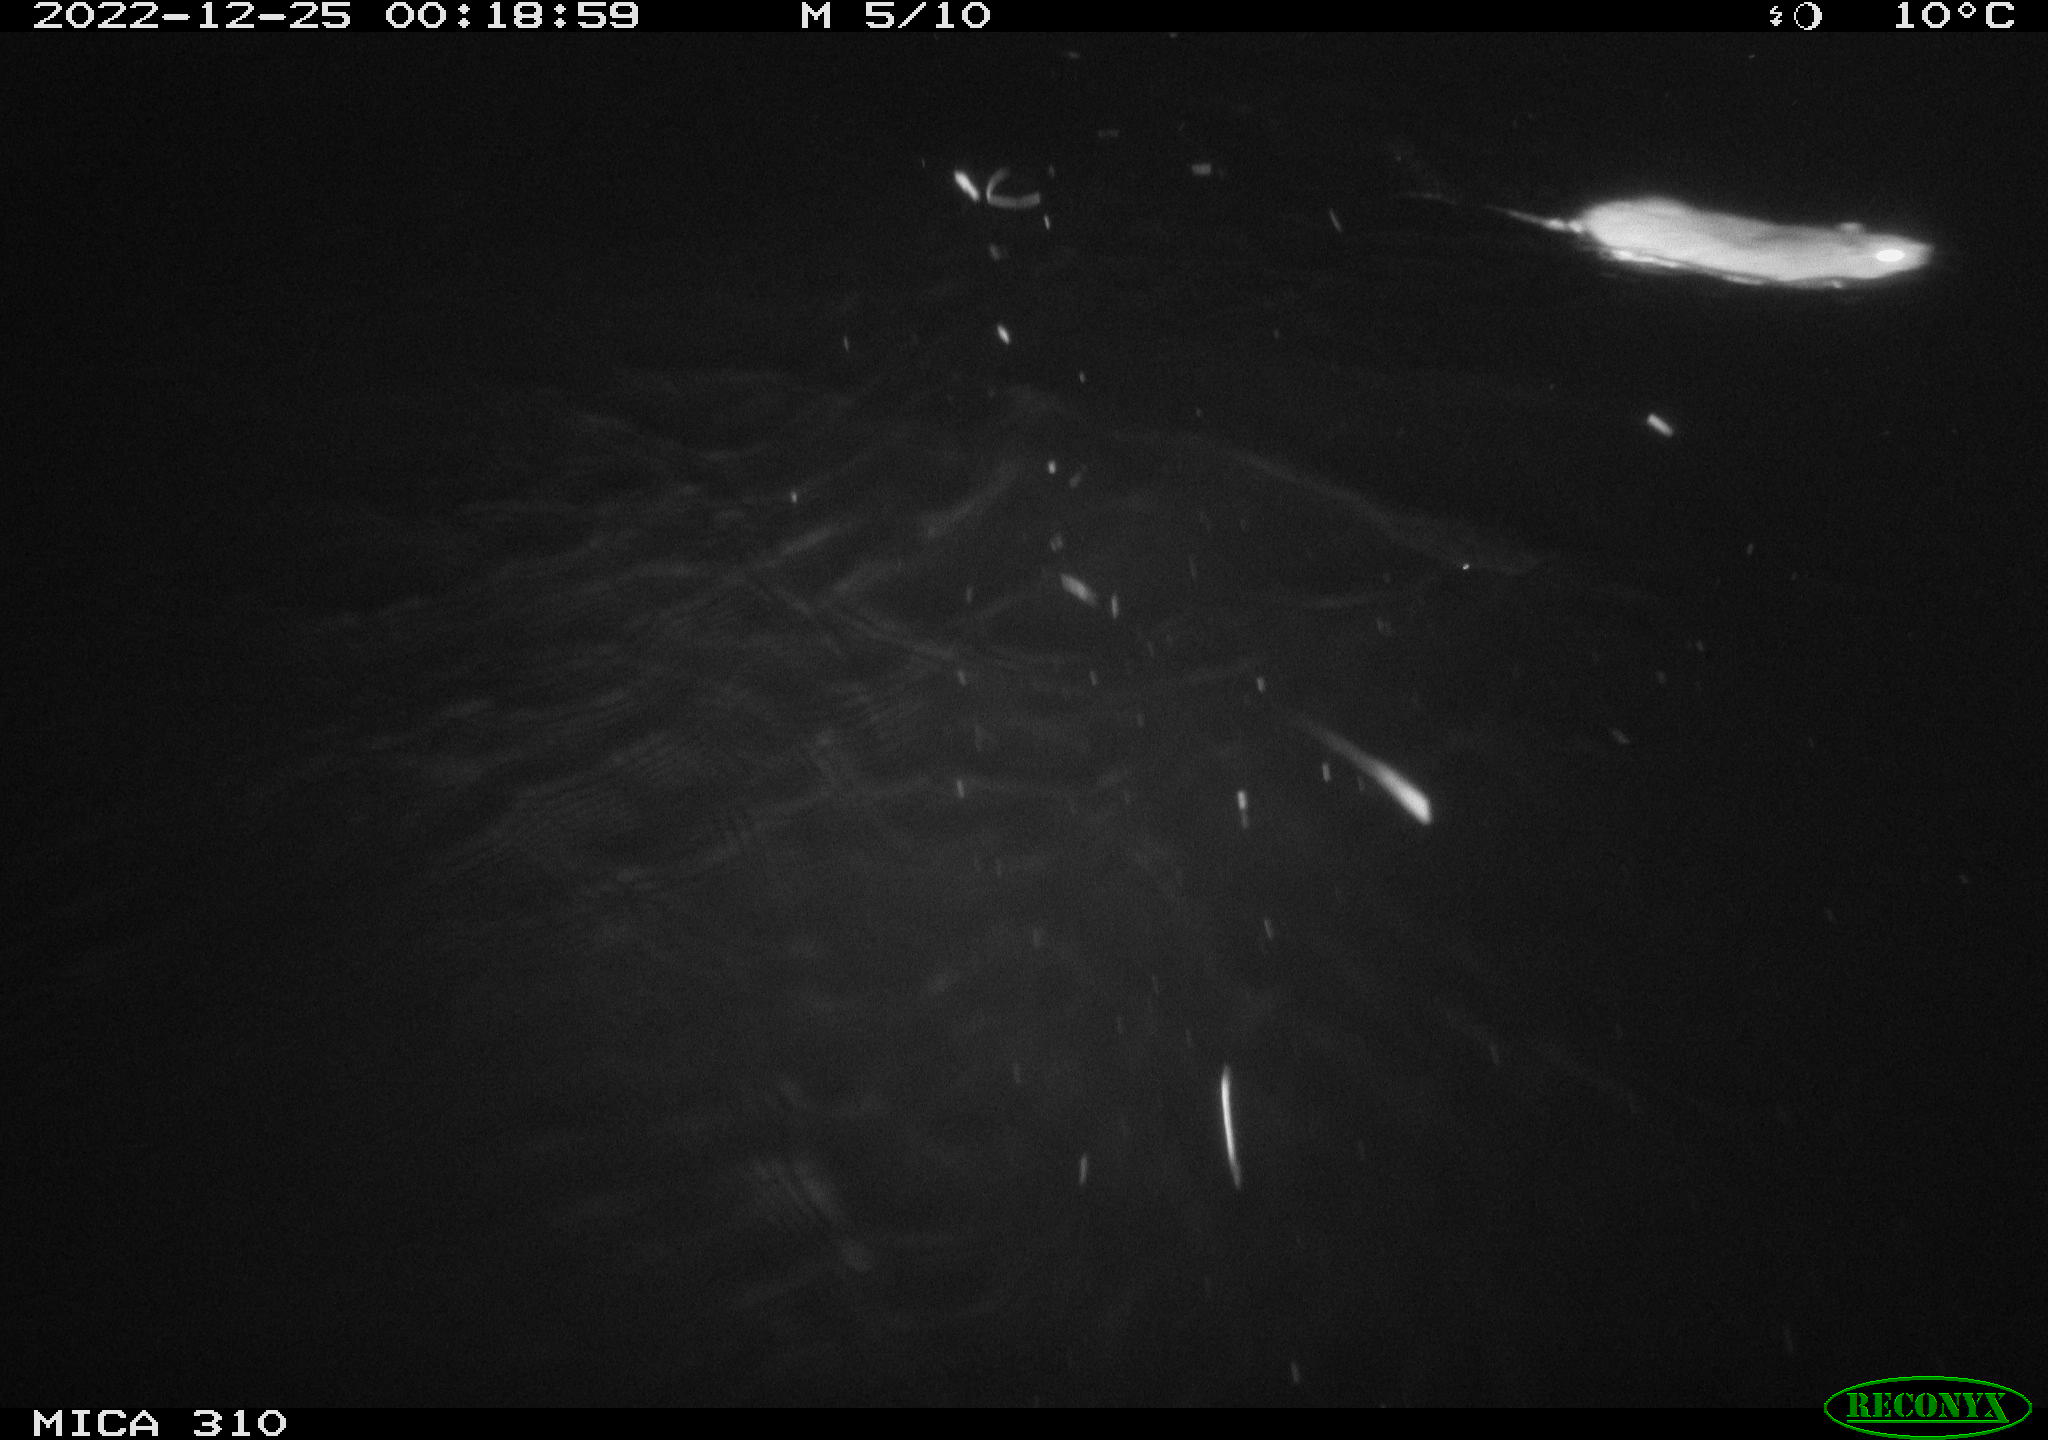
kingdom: Animalia
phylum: Chordata
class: Mammalia
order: Rodentia
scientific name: Rodentia
